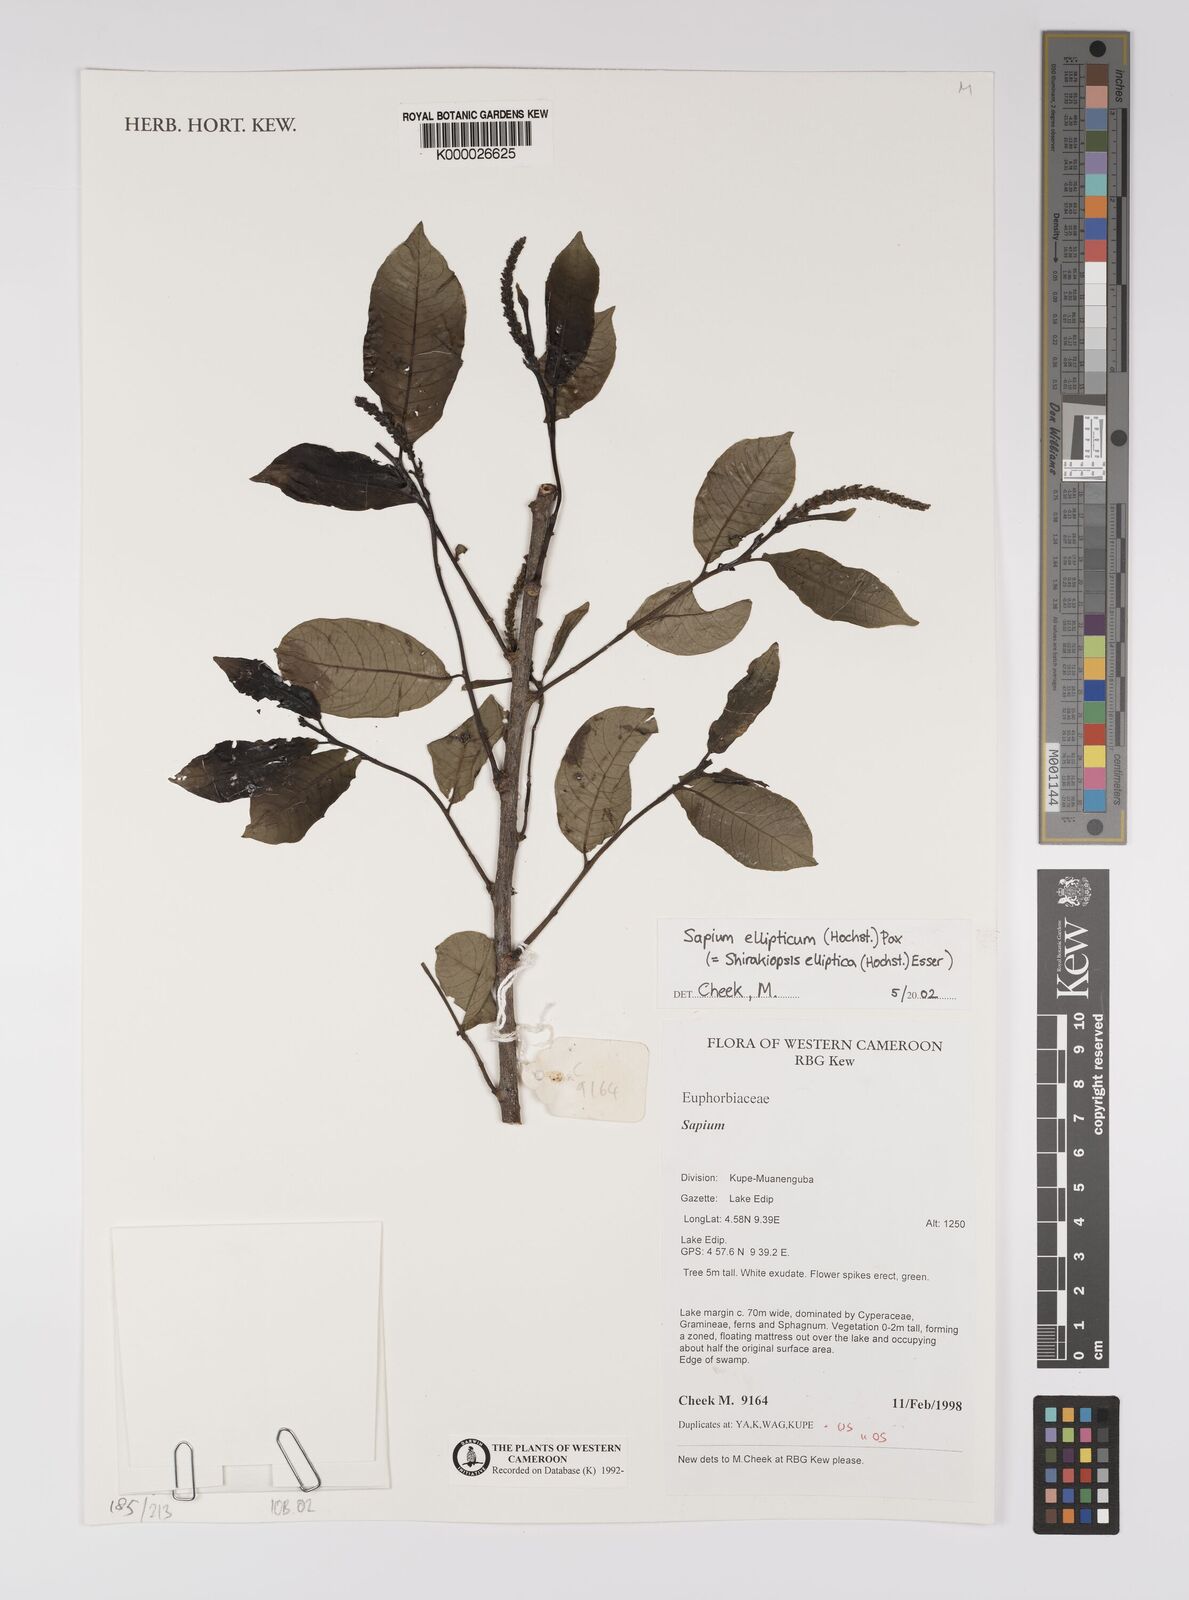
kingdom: Plantae
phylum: Tracheophyta
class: Magnoliopsida
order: Malpighiales
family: Euphorbiaceae
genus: Shirakiopsis
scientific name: Shirakiopsis elliptica
